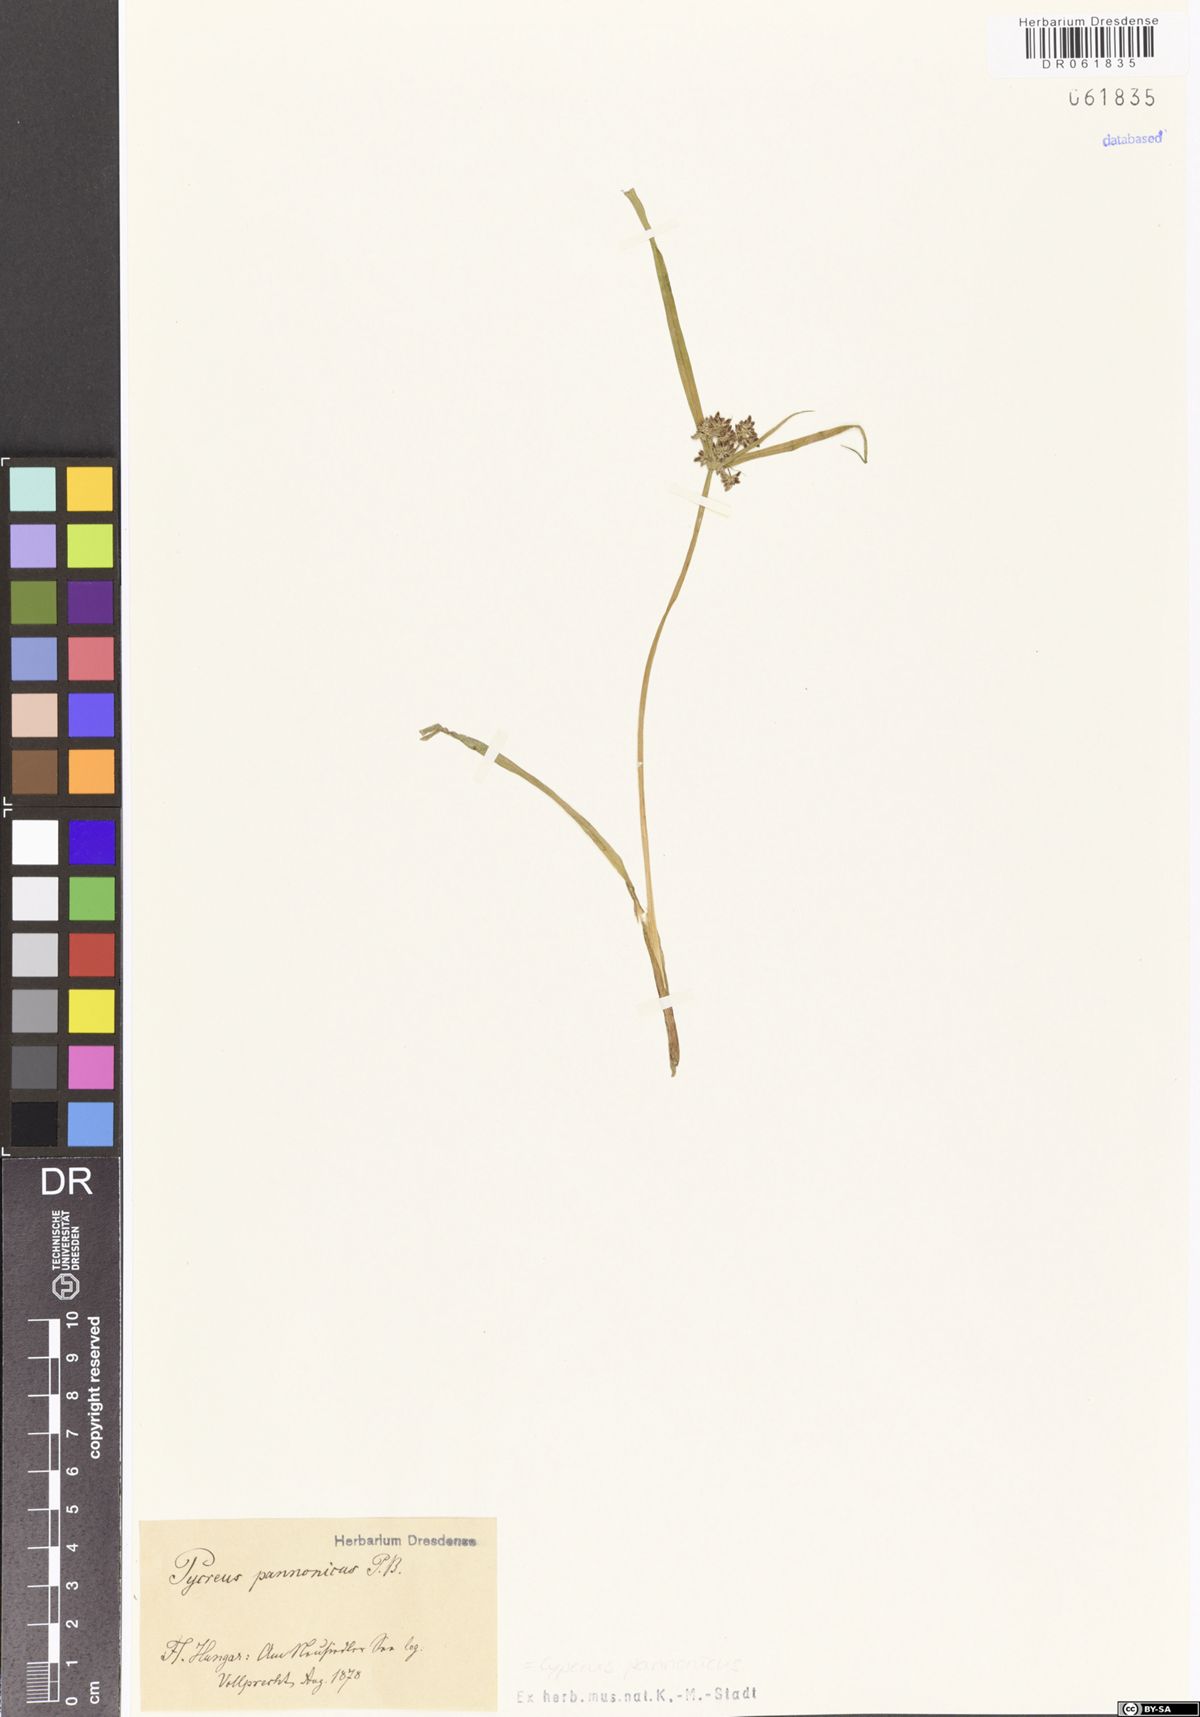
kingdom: Plantae
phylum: Tracheophyta
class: Liliopsida
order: Poales
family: Cyperaceae
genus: Cyperus
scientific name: Cyperus pannonicus
